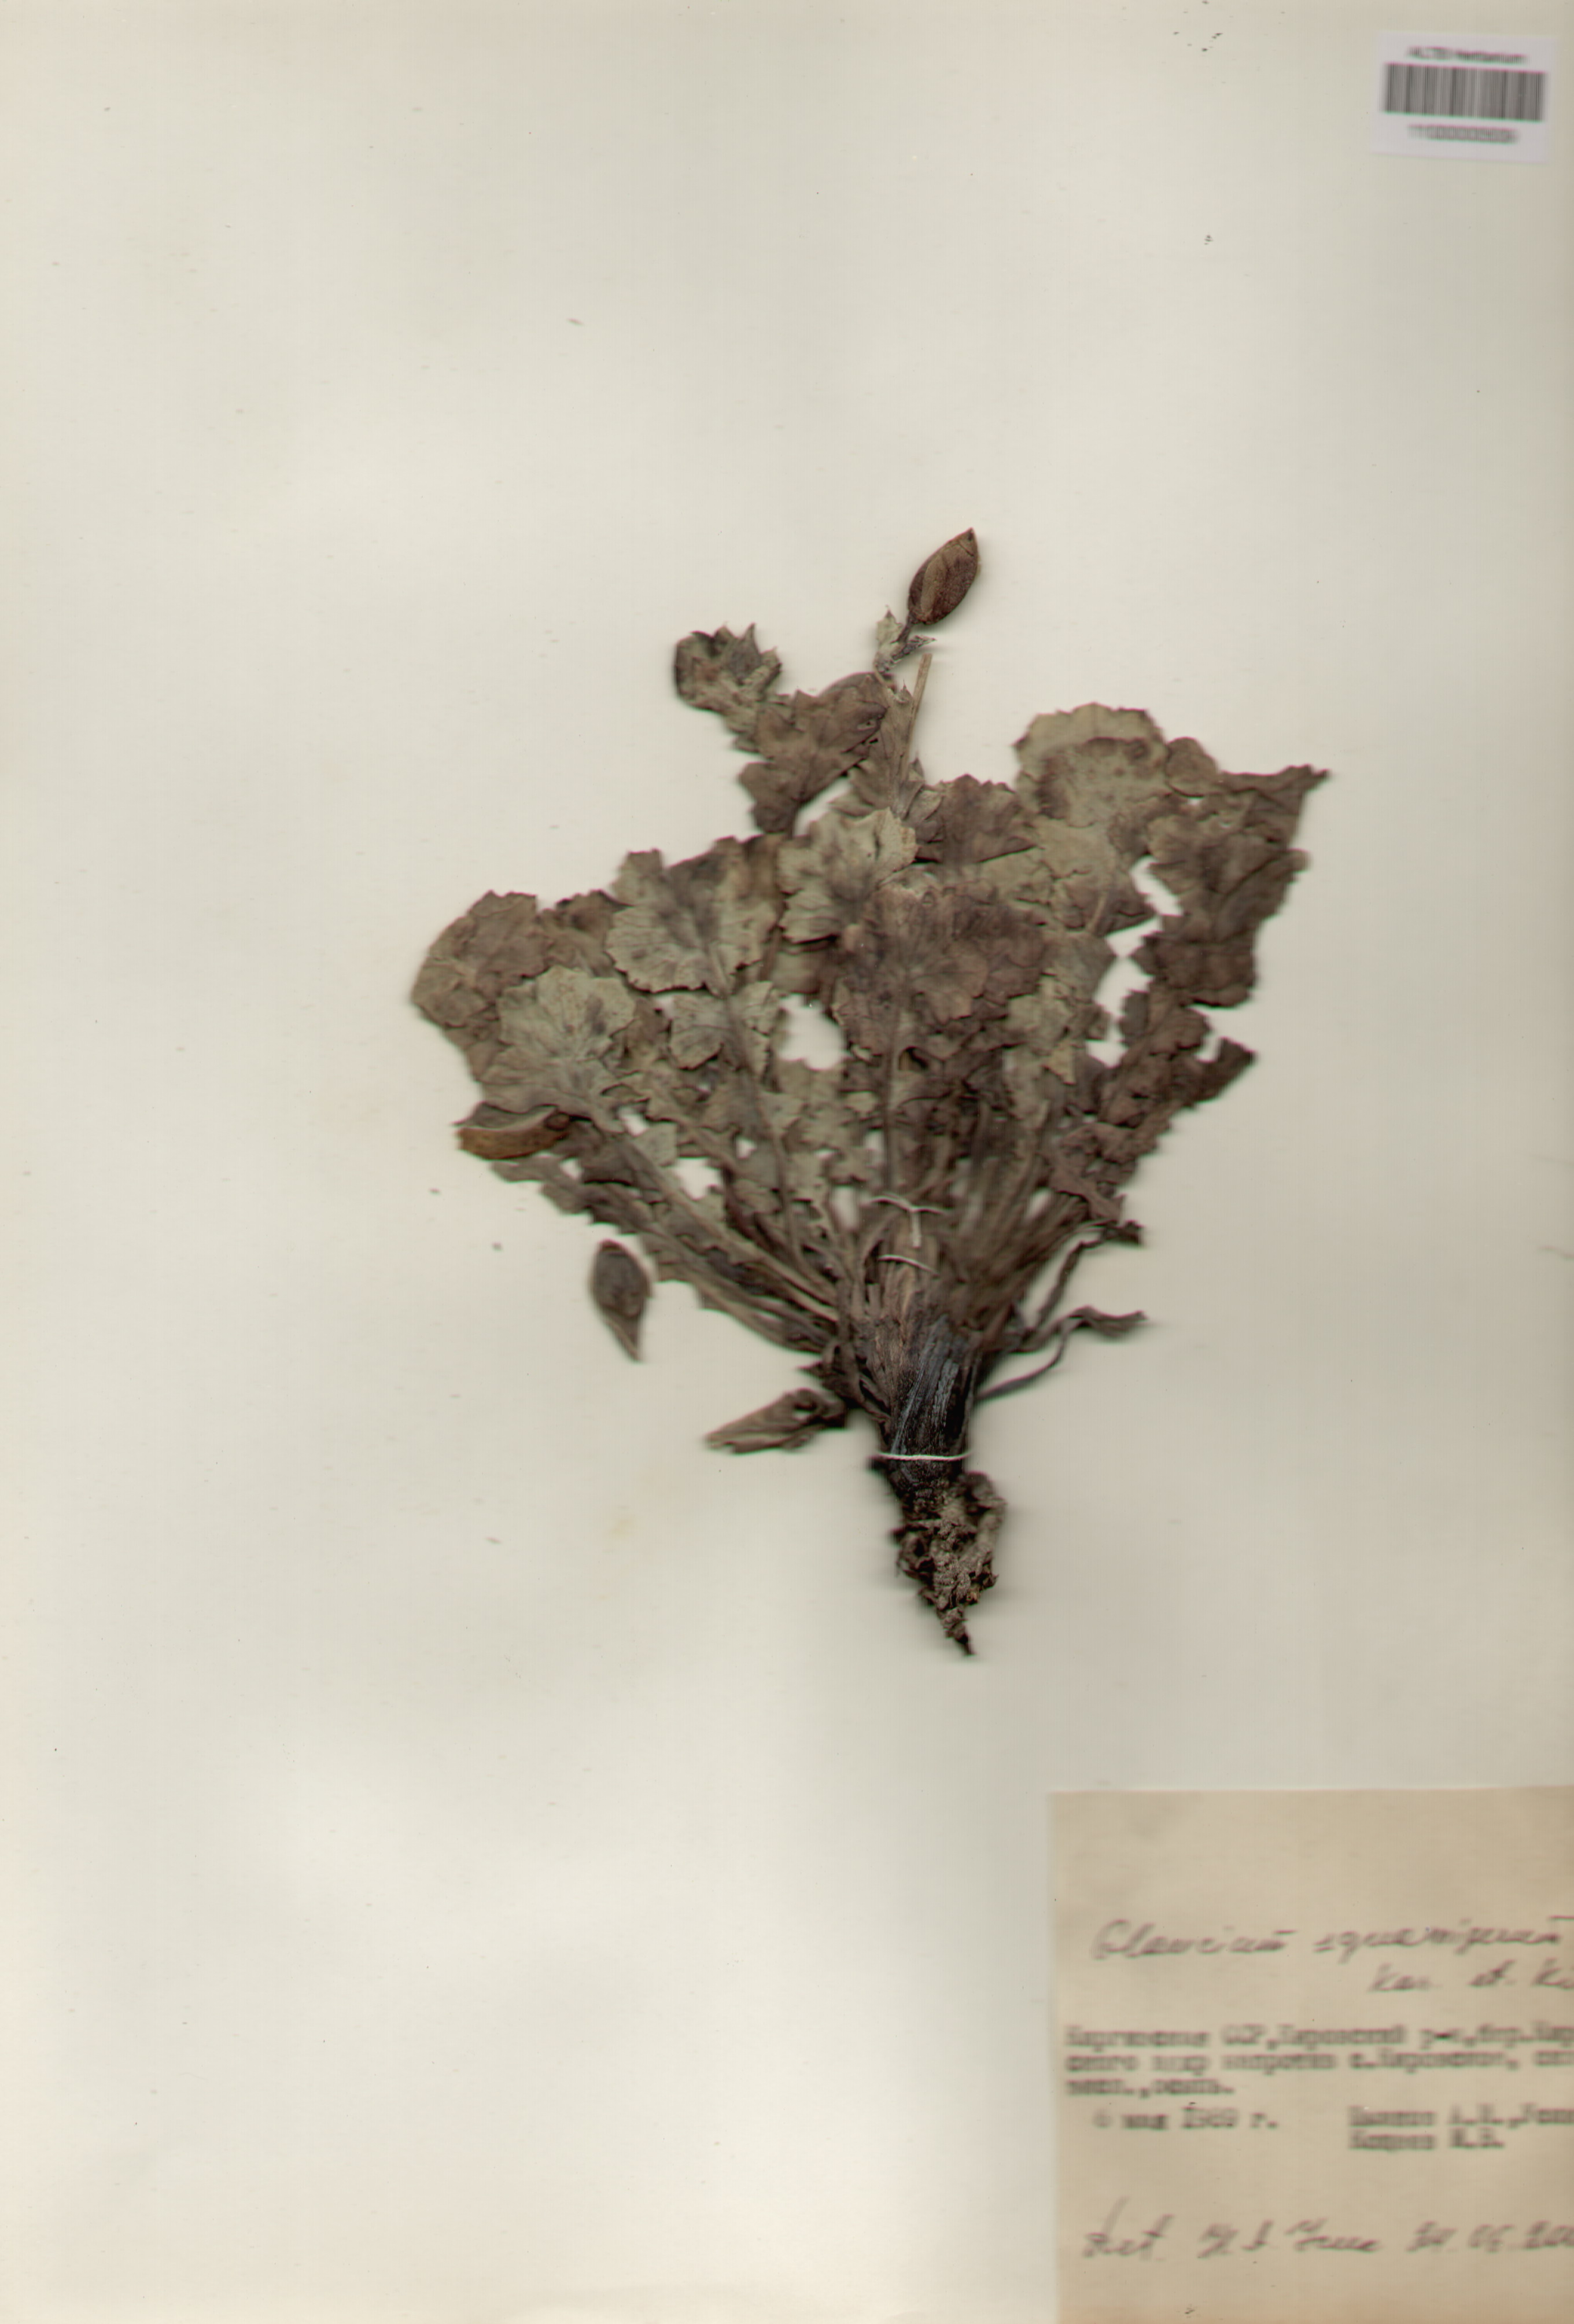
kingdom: Plantae
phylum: Tracheophyta
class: Magnoliopsida
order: Ranunculales
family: Papaveraceae
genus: Glaucium
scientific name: Glaucium squamigerum
